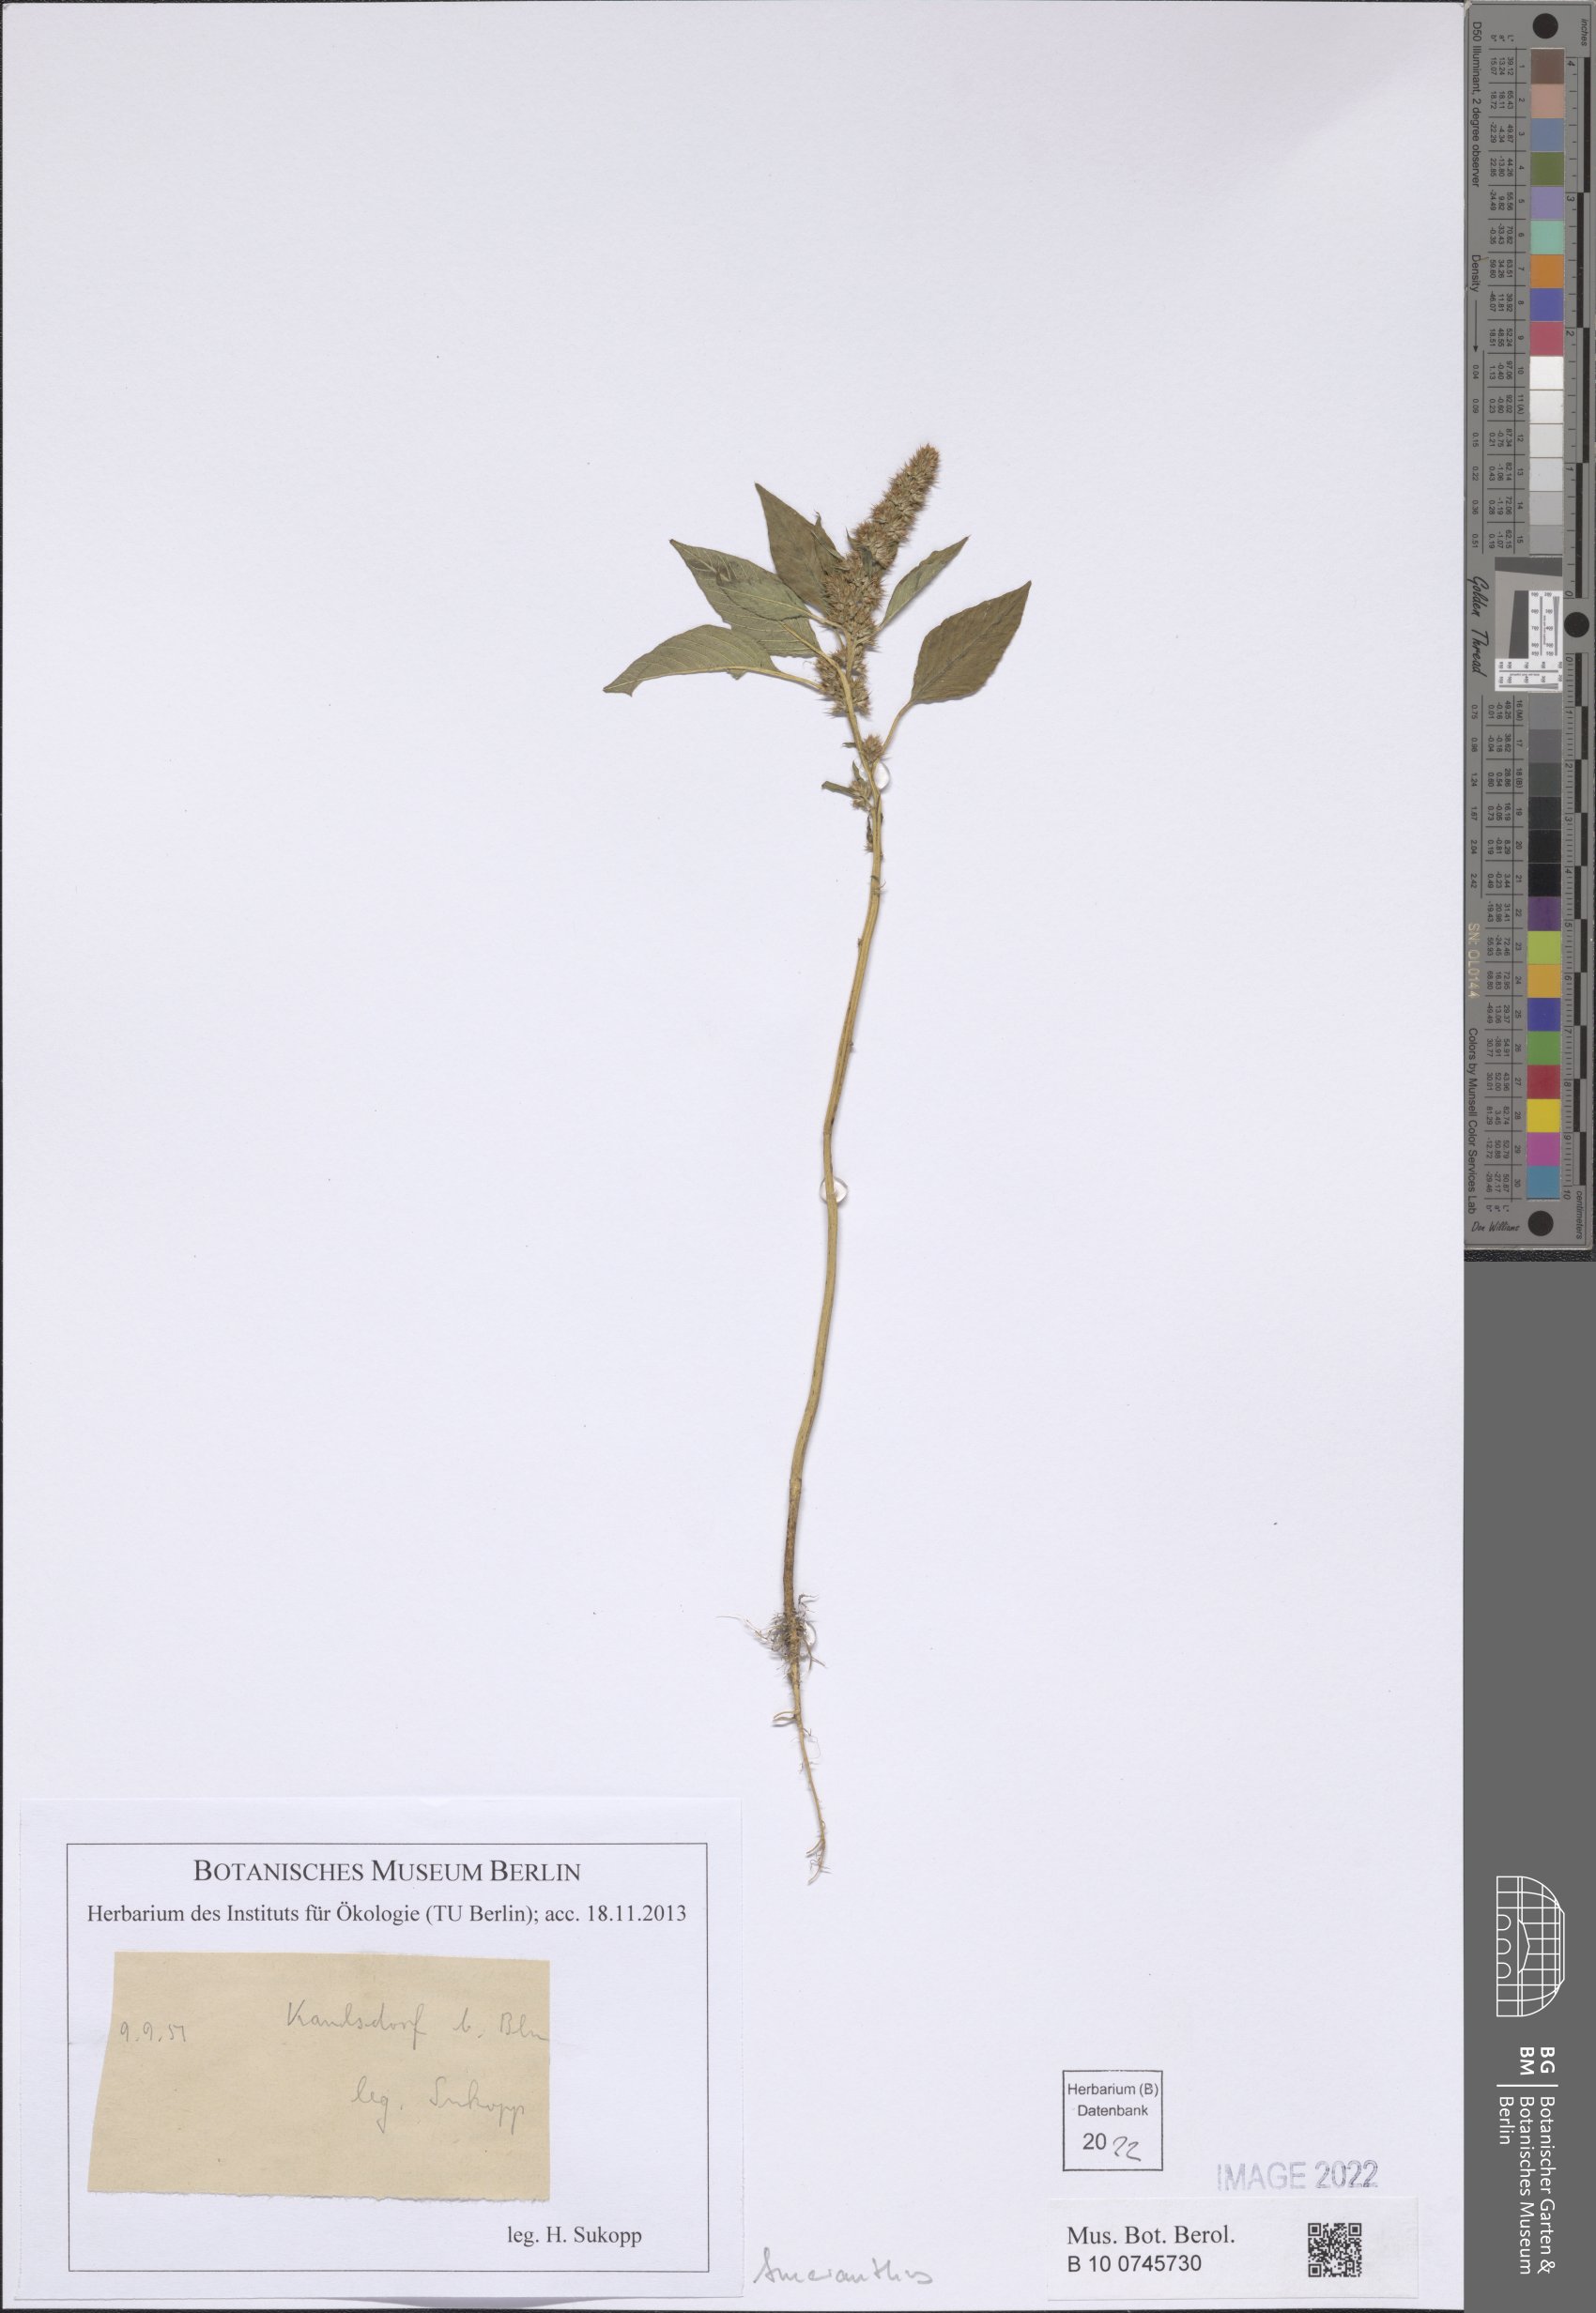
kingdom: Plantae
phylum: Tracheophyta
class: Magnoliopsida
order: Caryophyllales
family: Amaranthaceae
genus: Amaranthus
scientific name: Amaranthus
